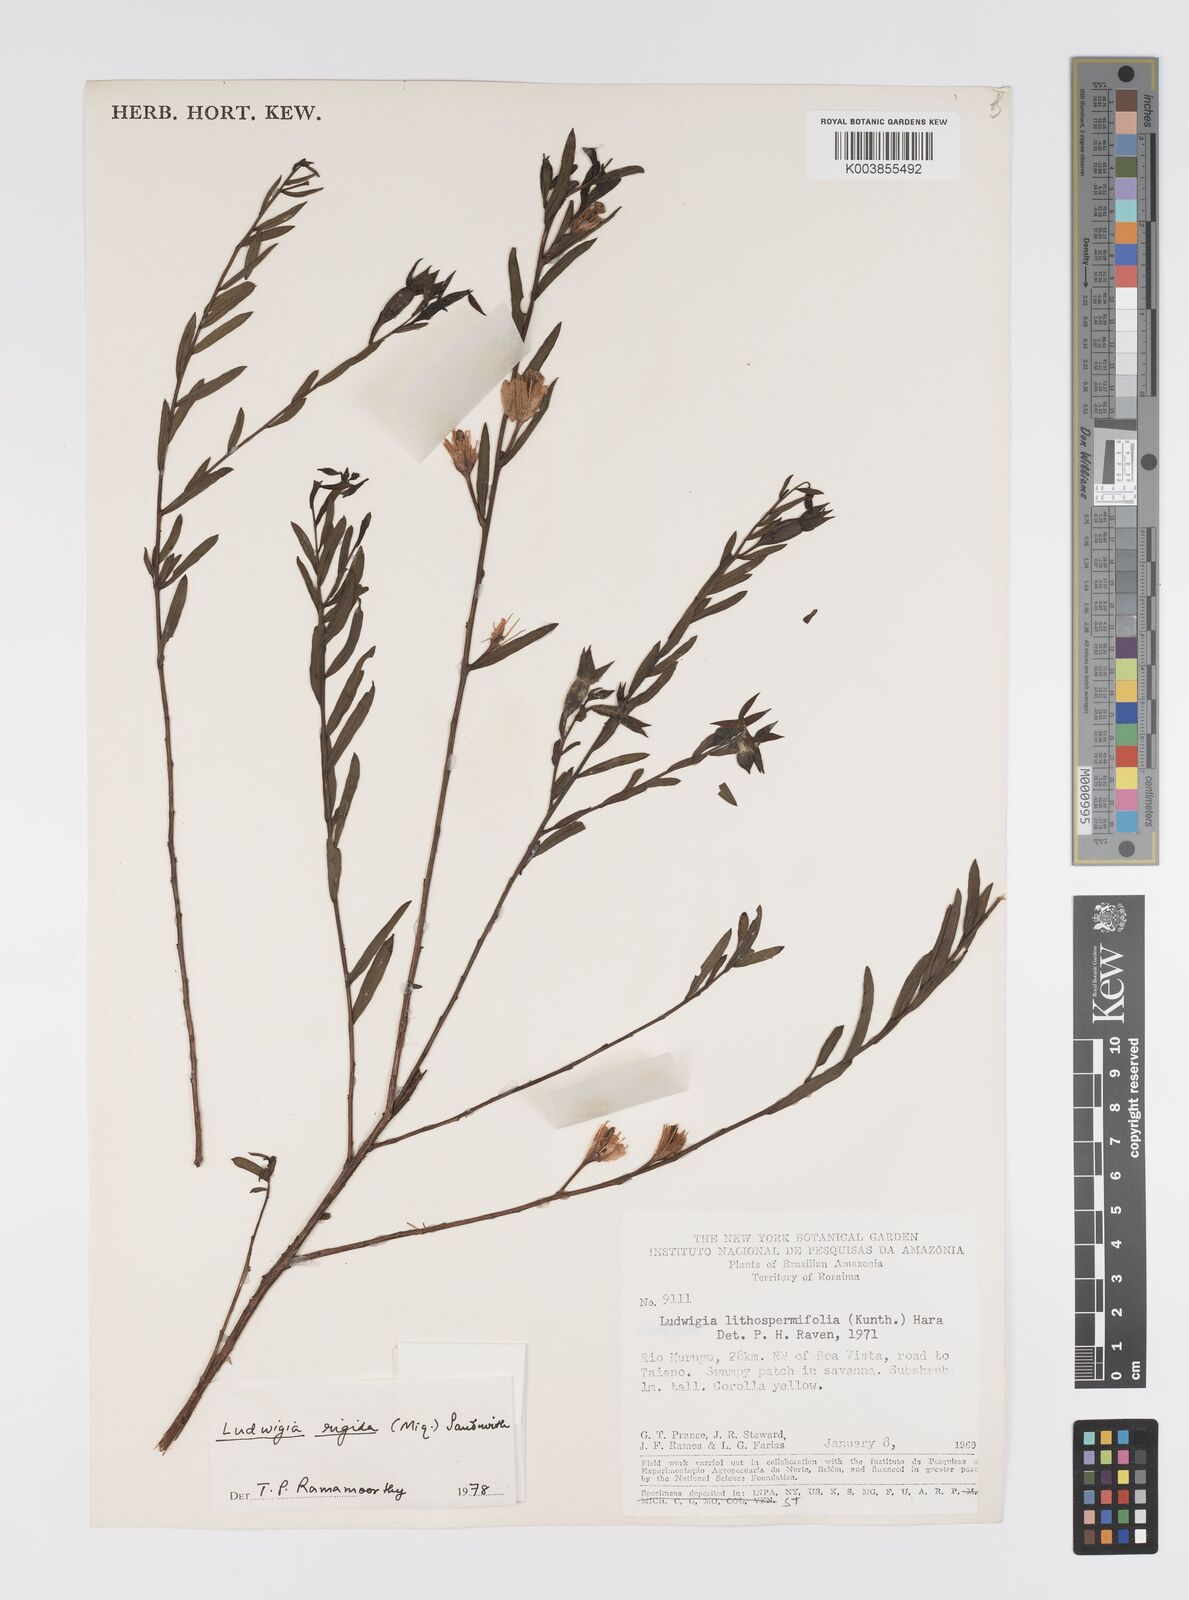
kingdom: Plantae
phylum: Tracheophyta
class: Magnoliopsida
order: Myrtales
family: Onagraceae
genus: Ludwigia
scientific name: Ludwigia rigida
